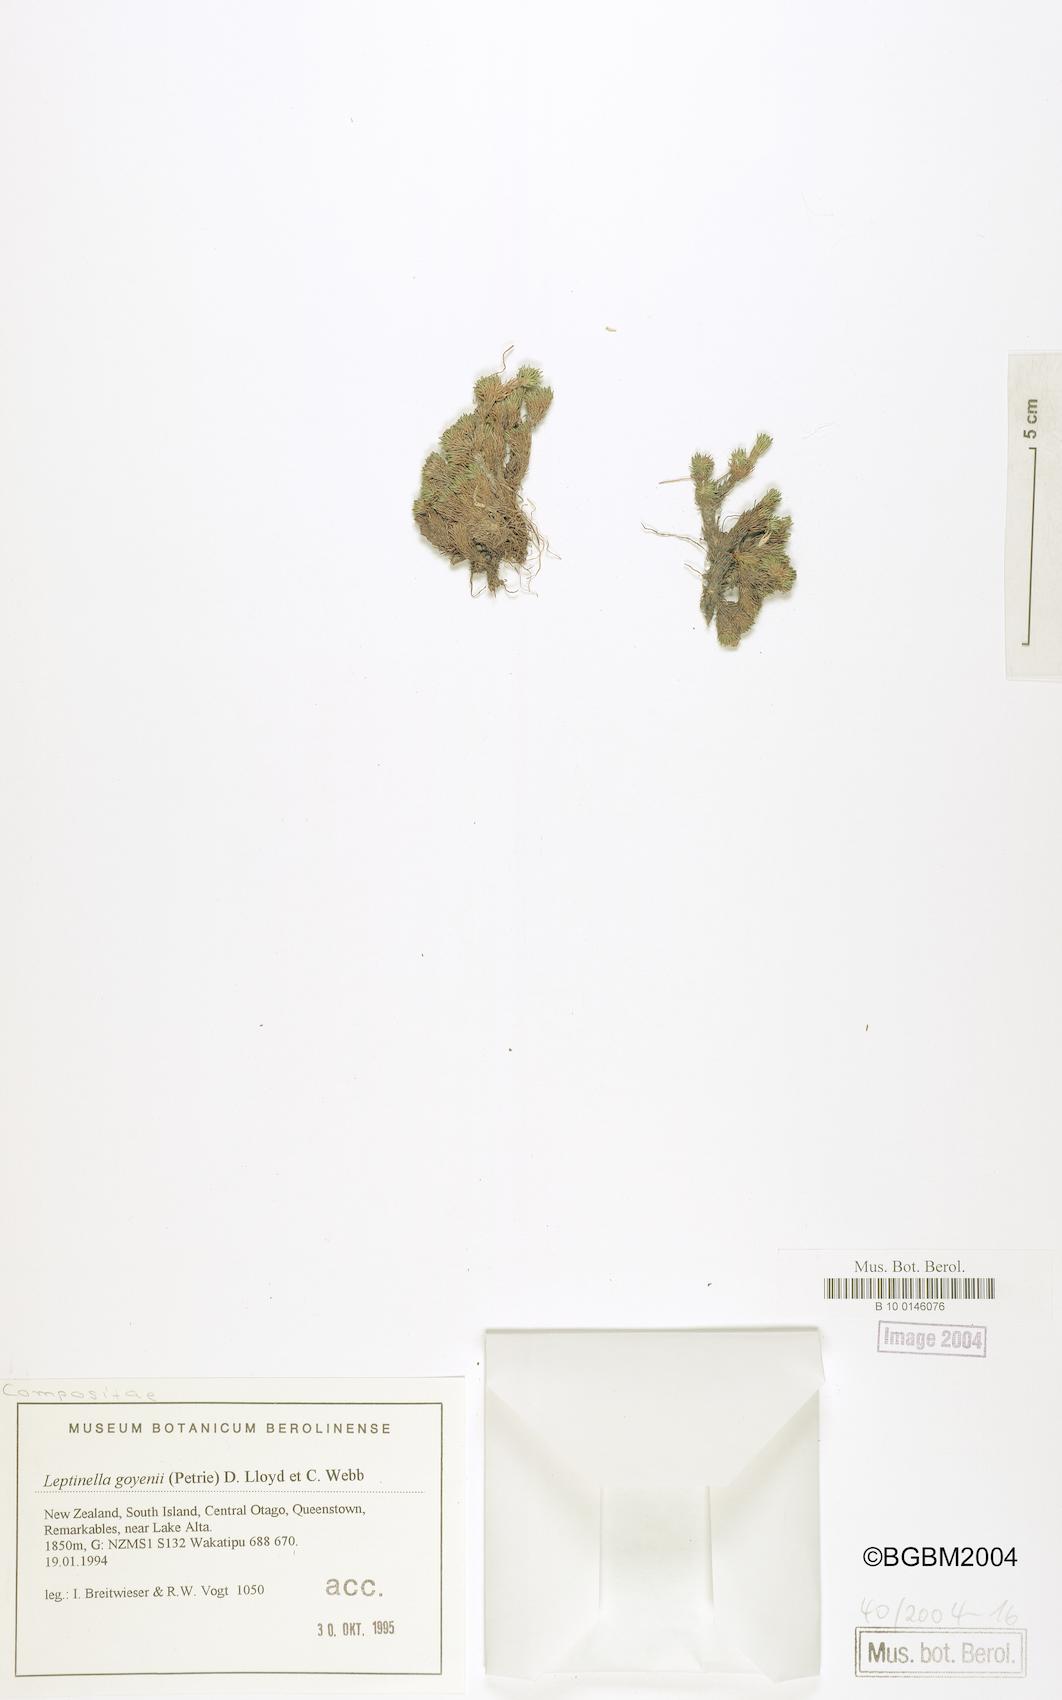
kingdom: Plantae
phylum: Tracheophyta
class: Magnoliopsida
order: Asterales
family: Asteraceae
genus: Leptinella
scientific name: Leptinella goyenii
